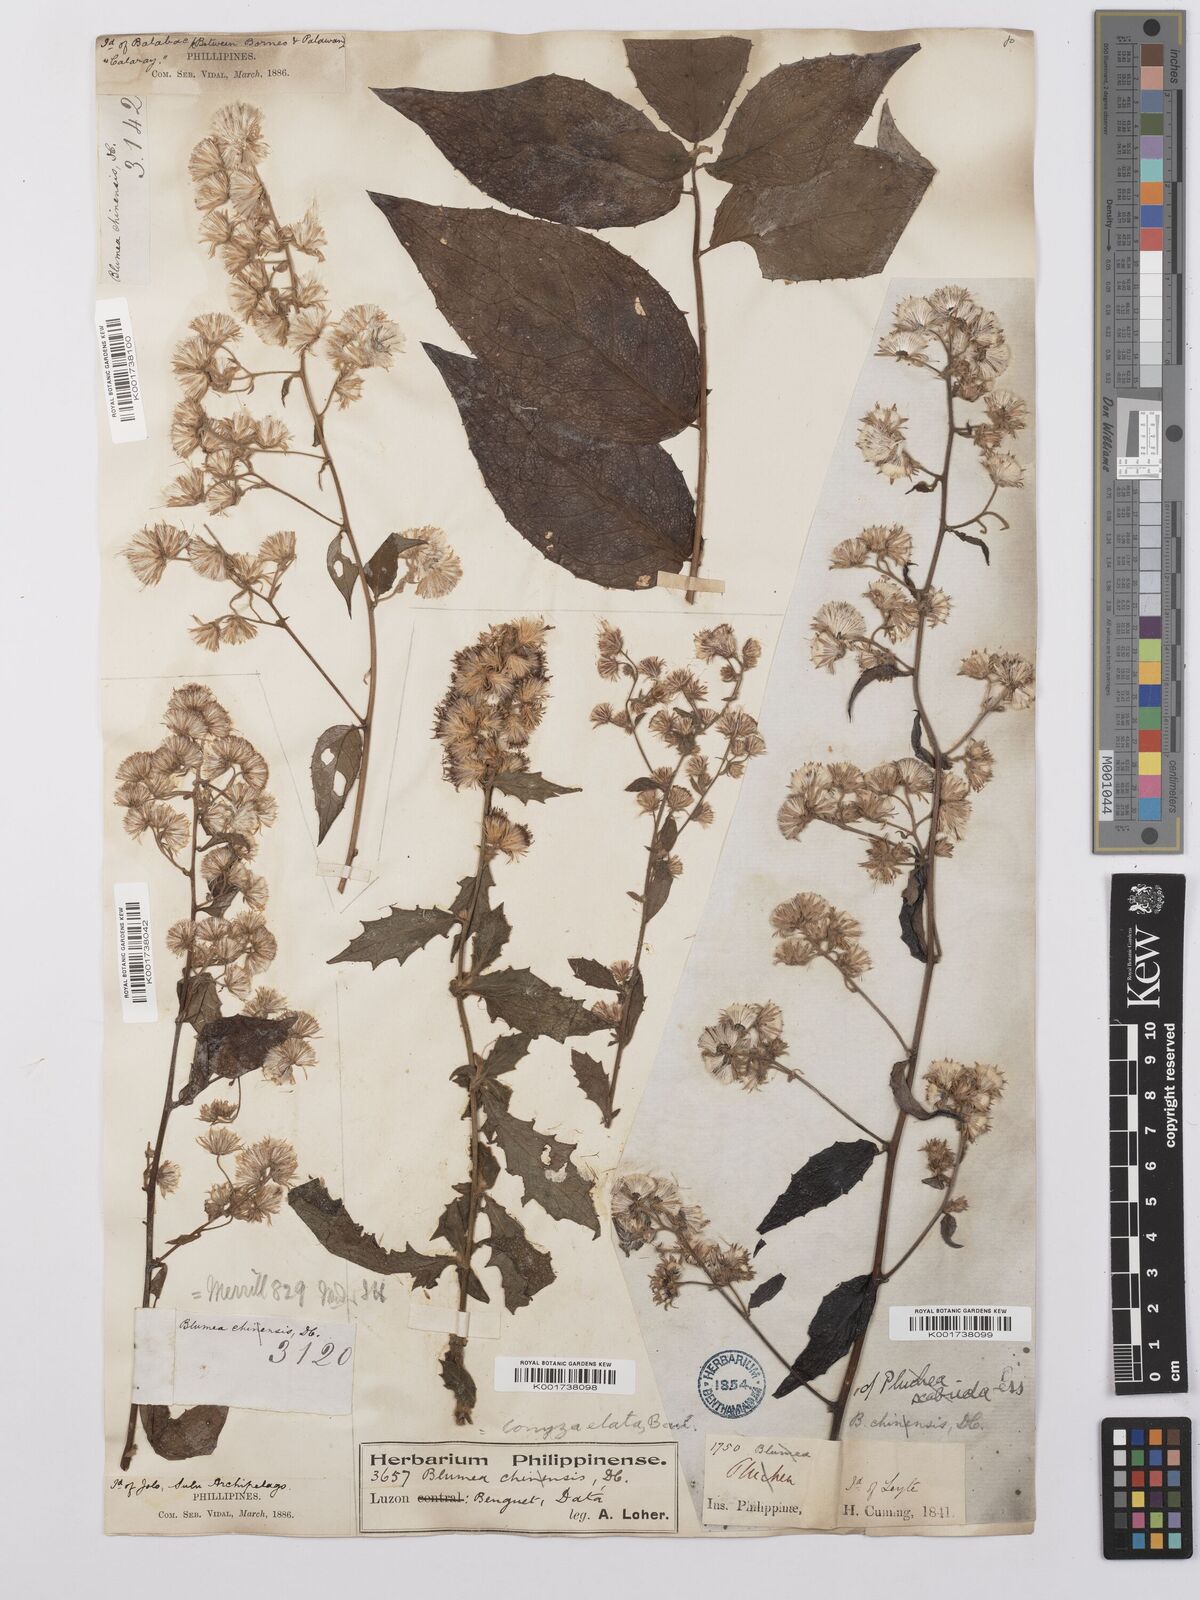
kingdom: Plantae
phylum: Tracheophyta
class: Magnoliopsida
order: Asterales
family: Asteraceae
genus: Erigeron
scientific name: Erigeron floribundus
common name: Bilbao fleabane
